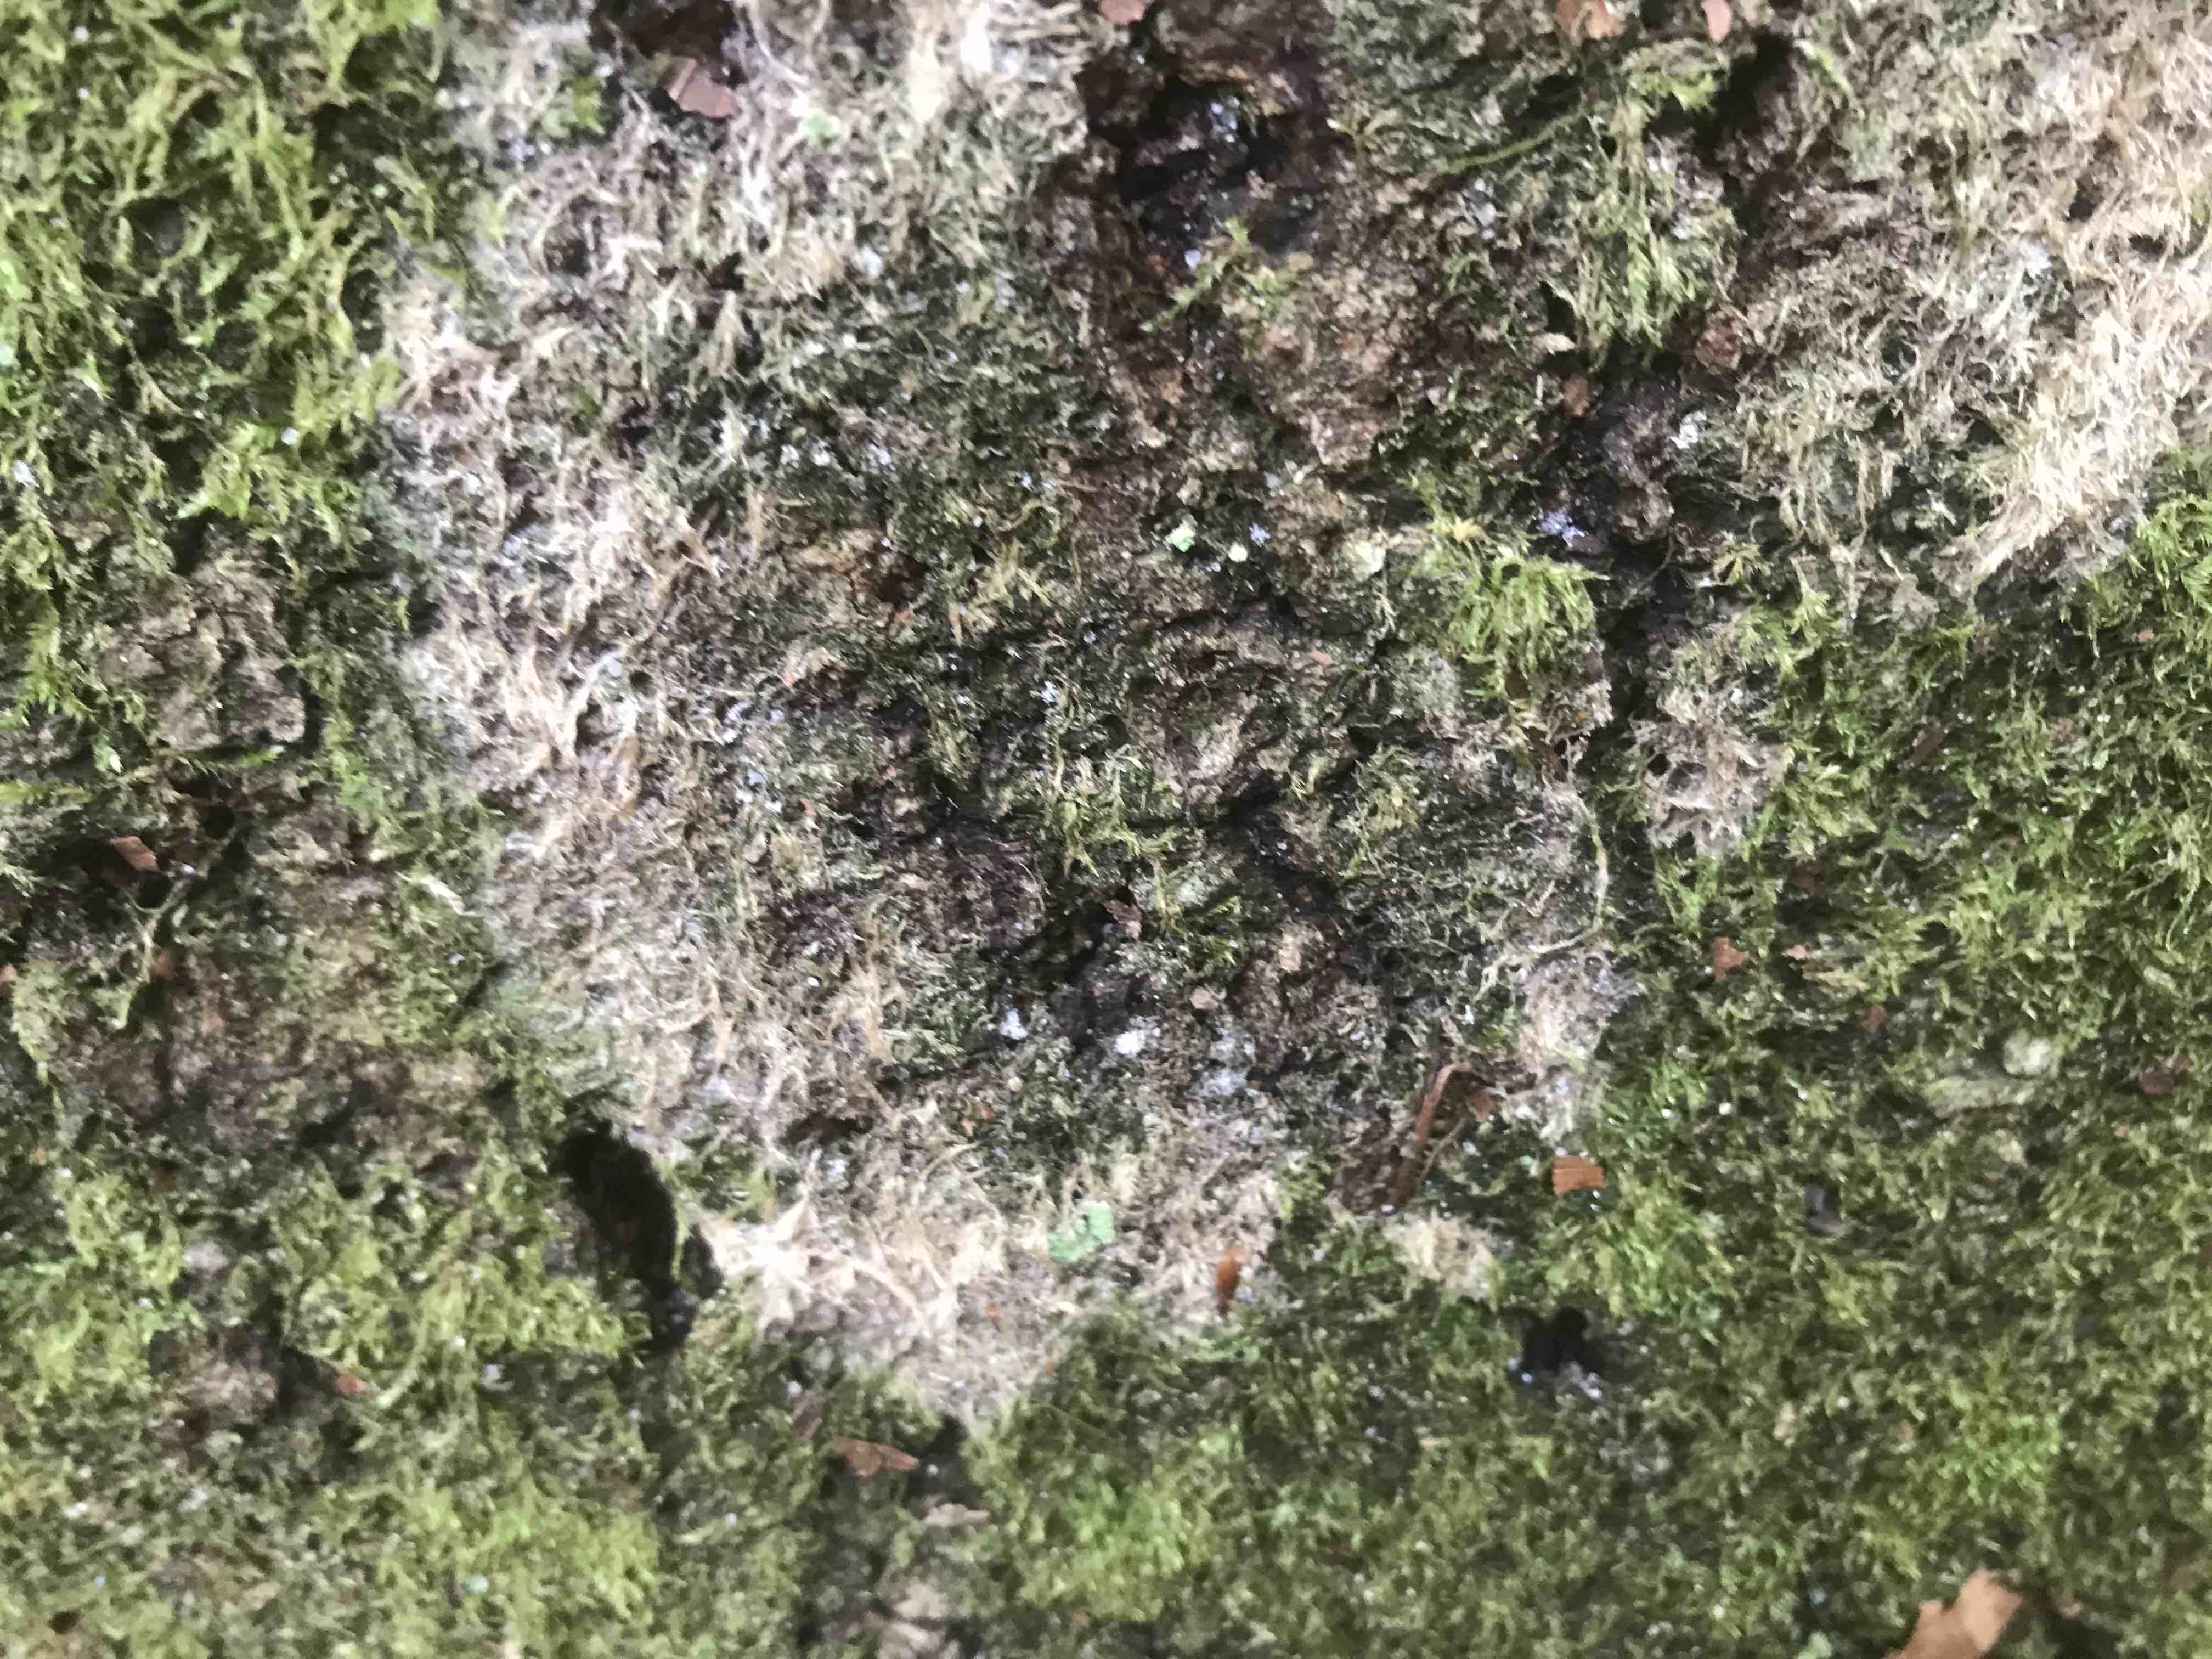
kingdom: Fungi
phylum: Basidiomycota
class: Agaricomycetes
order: Agaricales
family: Chromocyphellaceae
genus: Chromocyphella
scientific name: Chromocyphella muscicola
